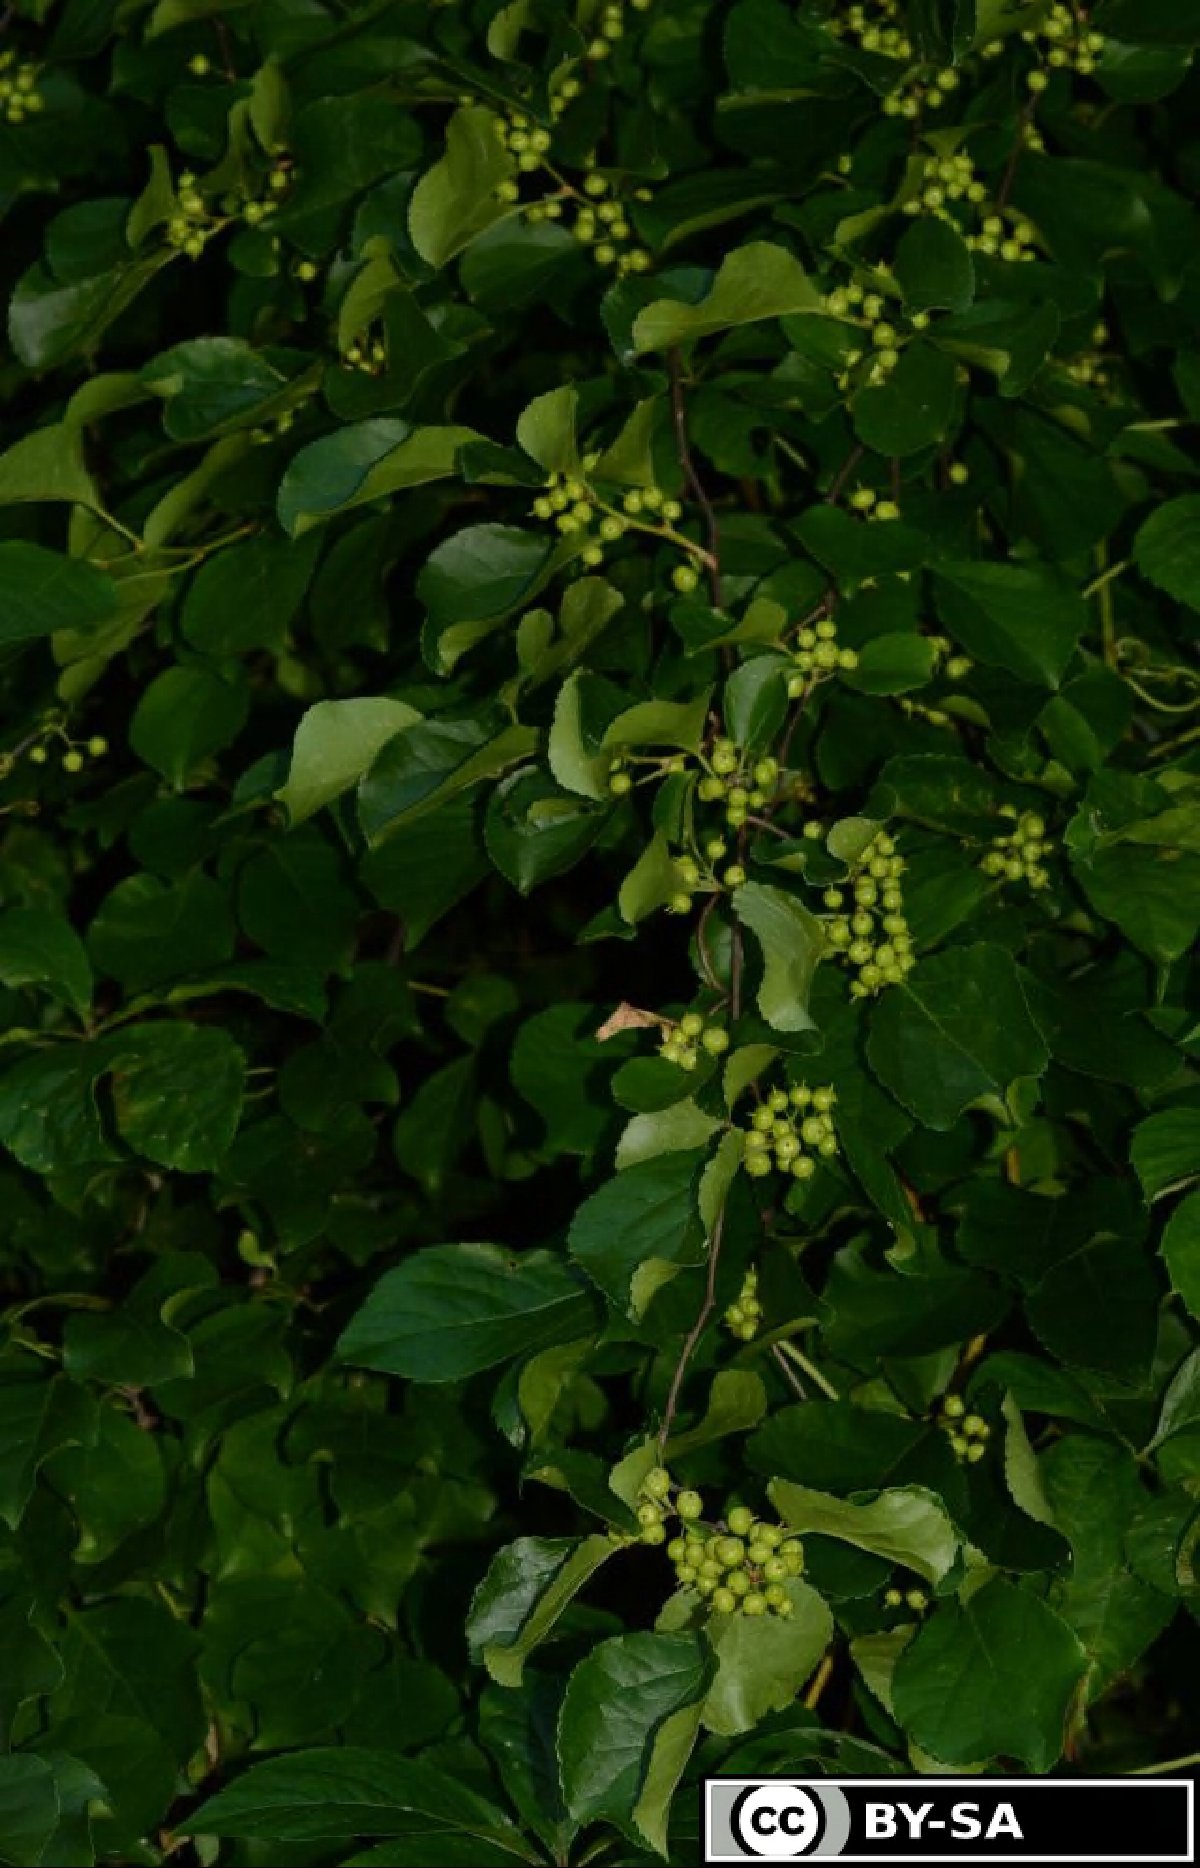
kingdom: Plantae
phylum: Tracheophyta
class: Magnoliopsida
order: Celastrales
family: Celastraceae
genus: Celastrus
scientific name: Celastrus orbiculatus
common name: Oriental bittersweet
